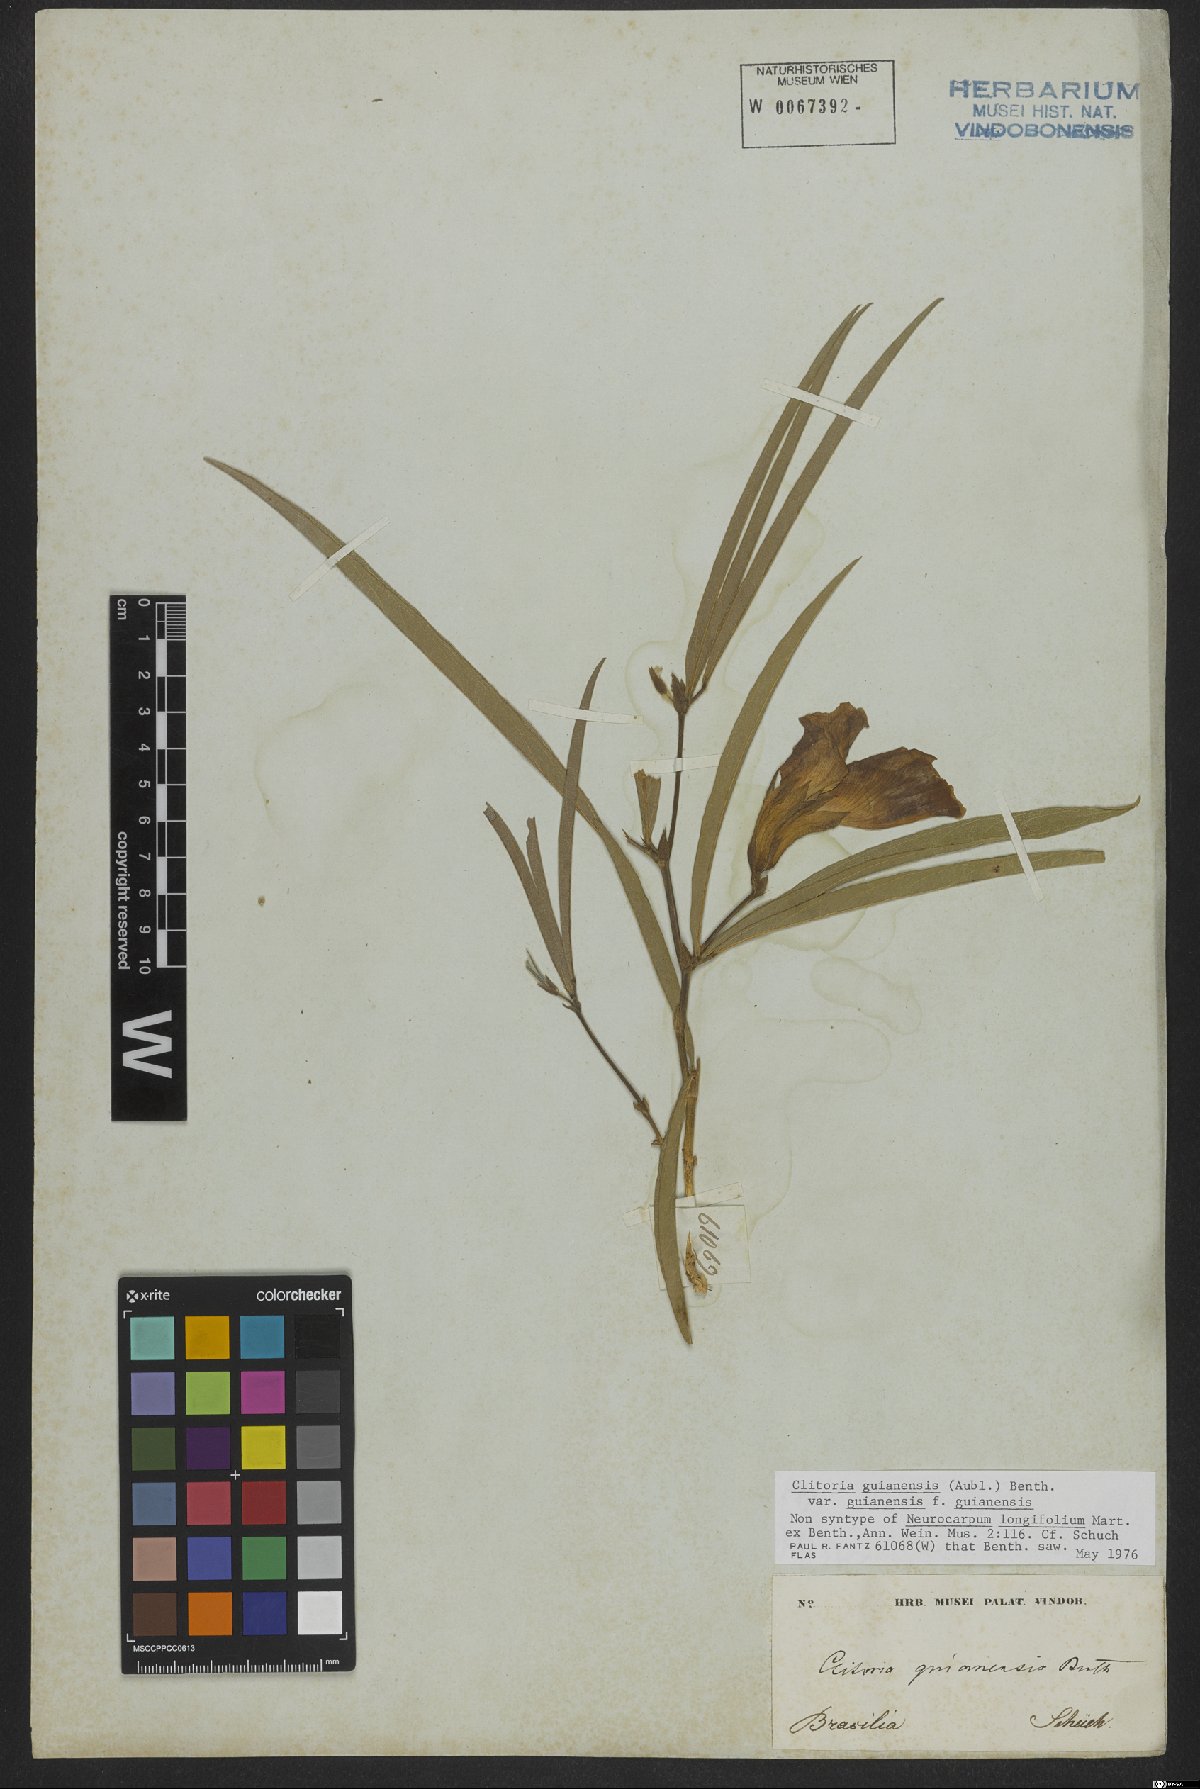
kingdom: Plantae
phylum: Tracheophyta
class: Magnoliopsida
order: Fabales
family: Fabaceae
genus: Clitoria
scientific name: Clitoria guianensis
